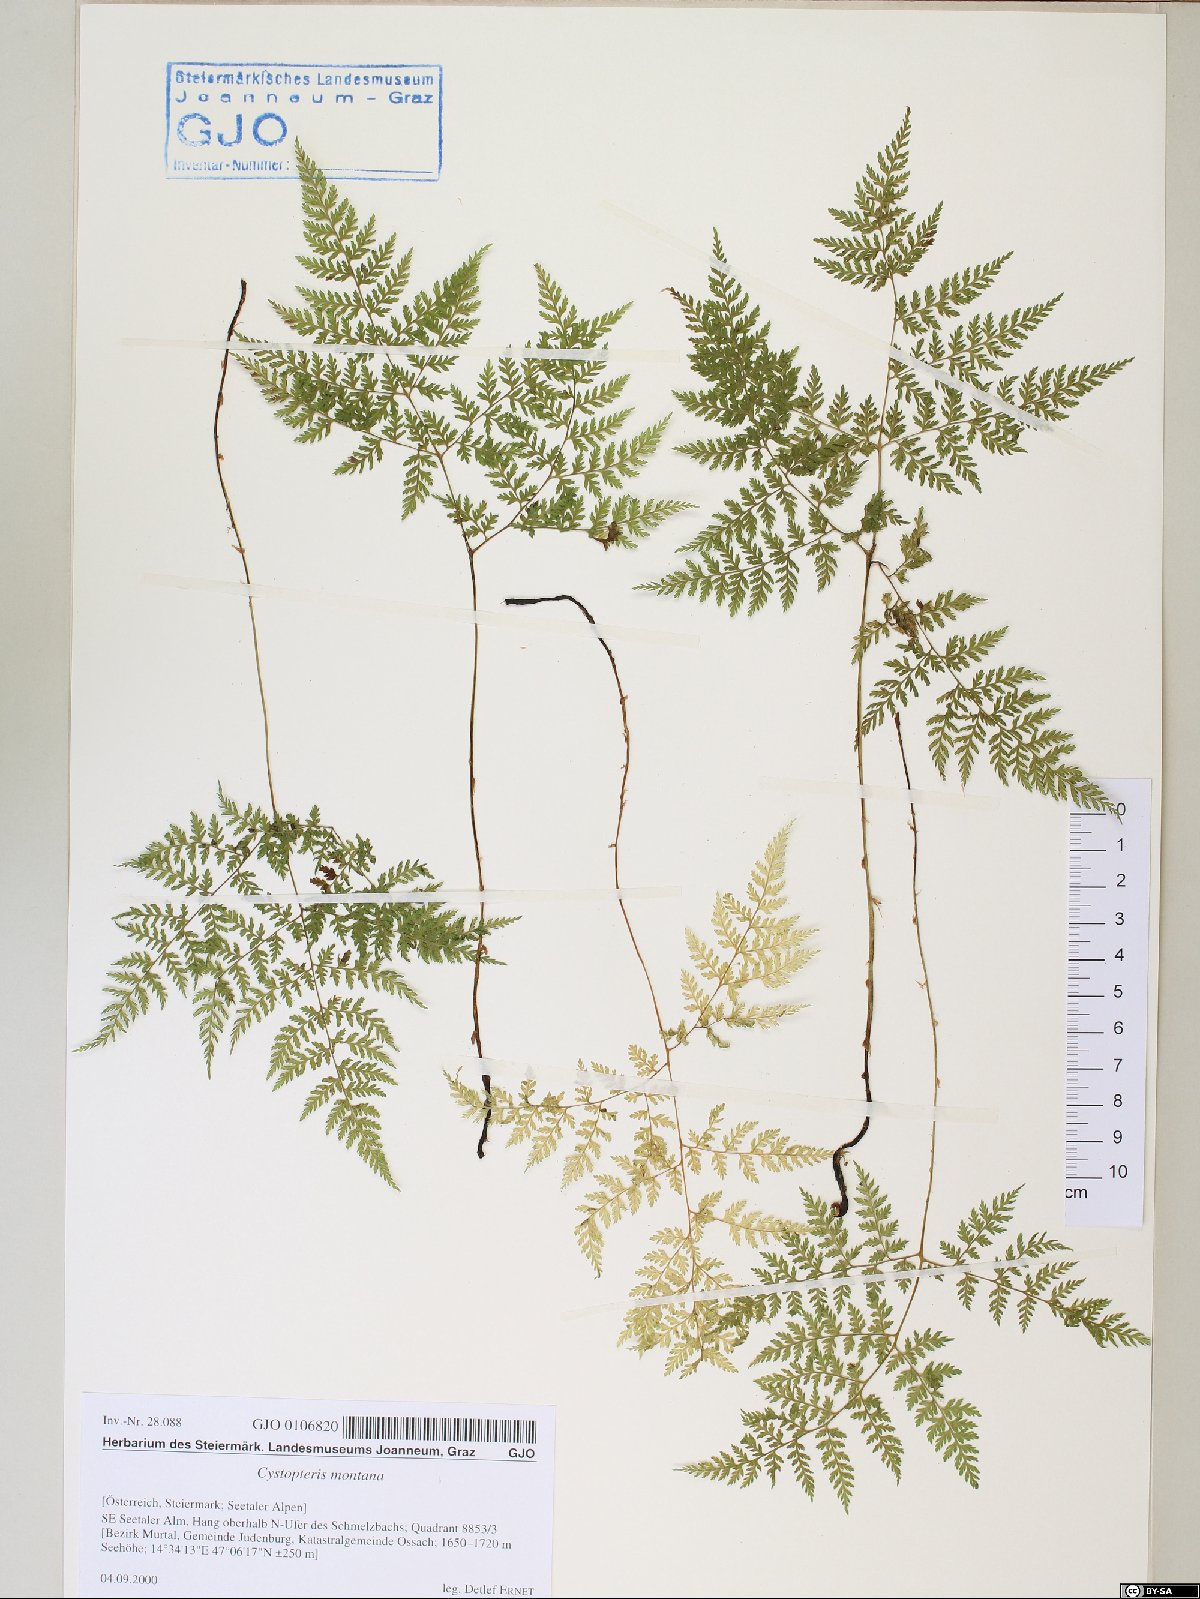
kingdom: Plantae
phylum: Tracheophyta
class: Polypodiopsida
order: Polypodiales
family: Cystopteridaceae
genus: Cystopteris
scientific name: Cystopteris montana
